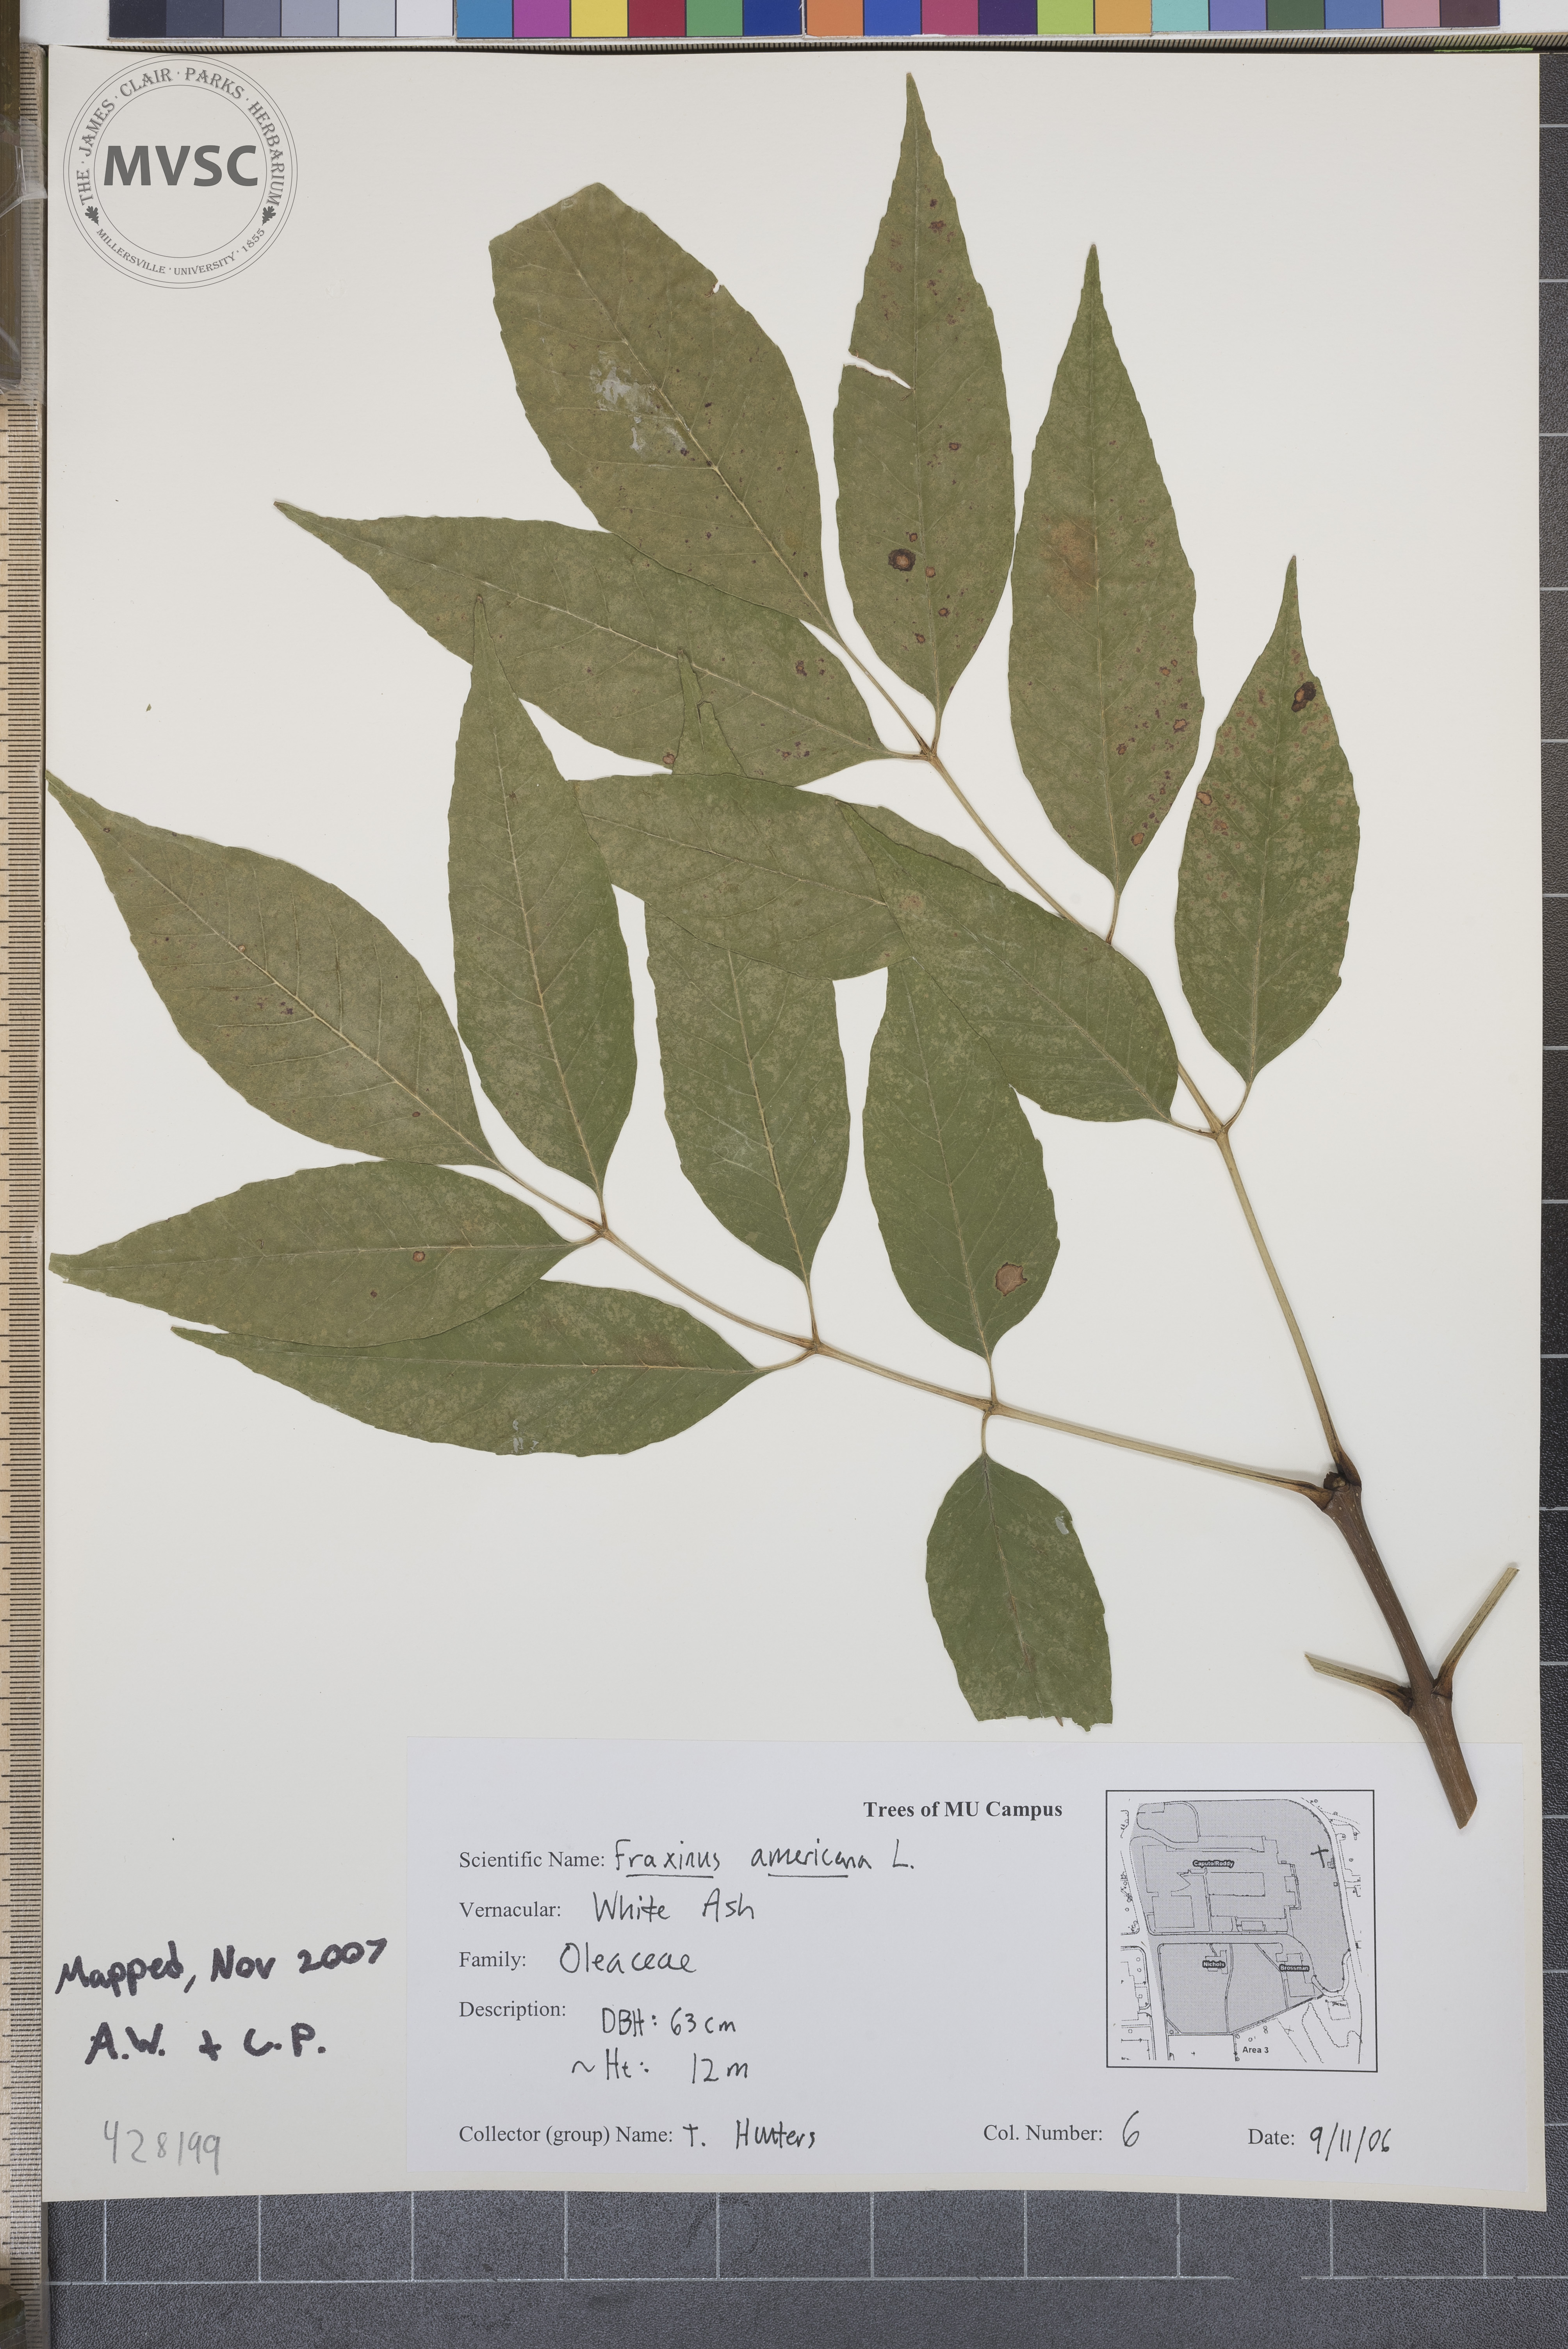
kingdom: Plantae
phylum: Tracheophyta
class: Magnoliopsida
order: Lamiales
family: Oleaceae
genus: Fraxinus
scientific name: Fraxinus americana
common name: White Ash
